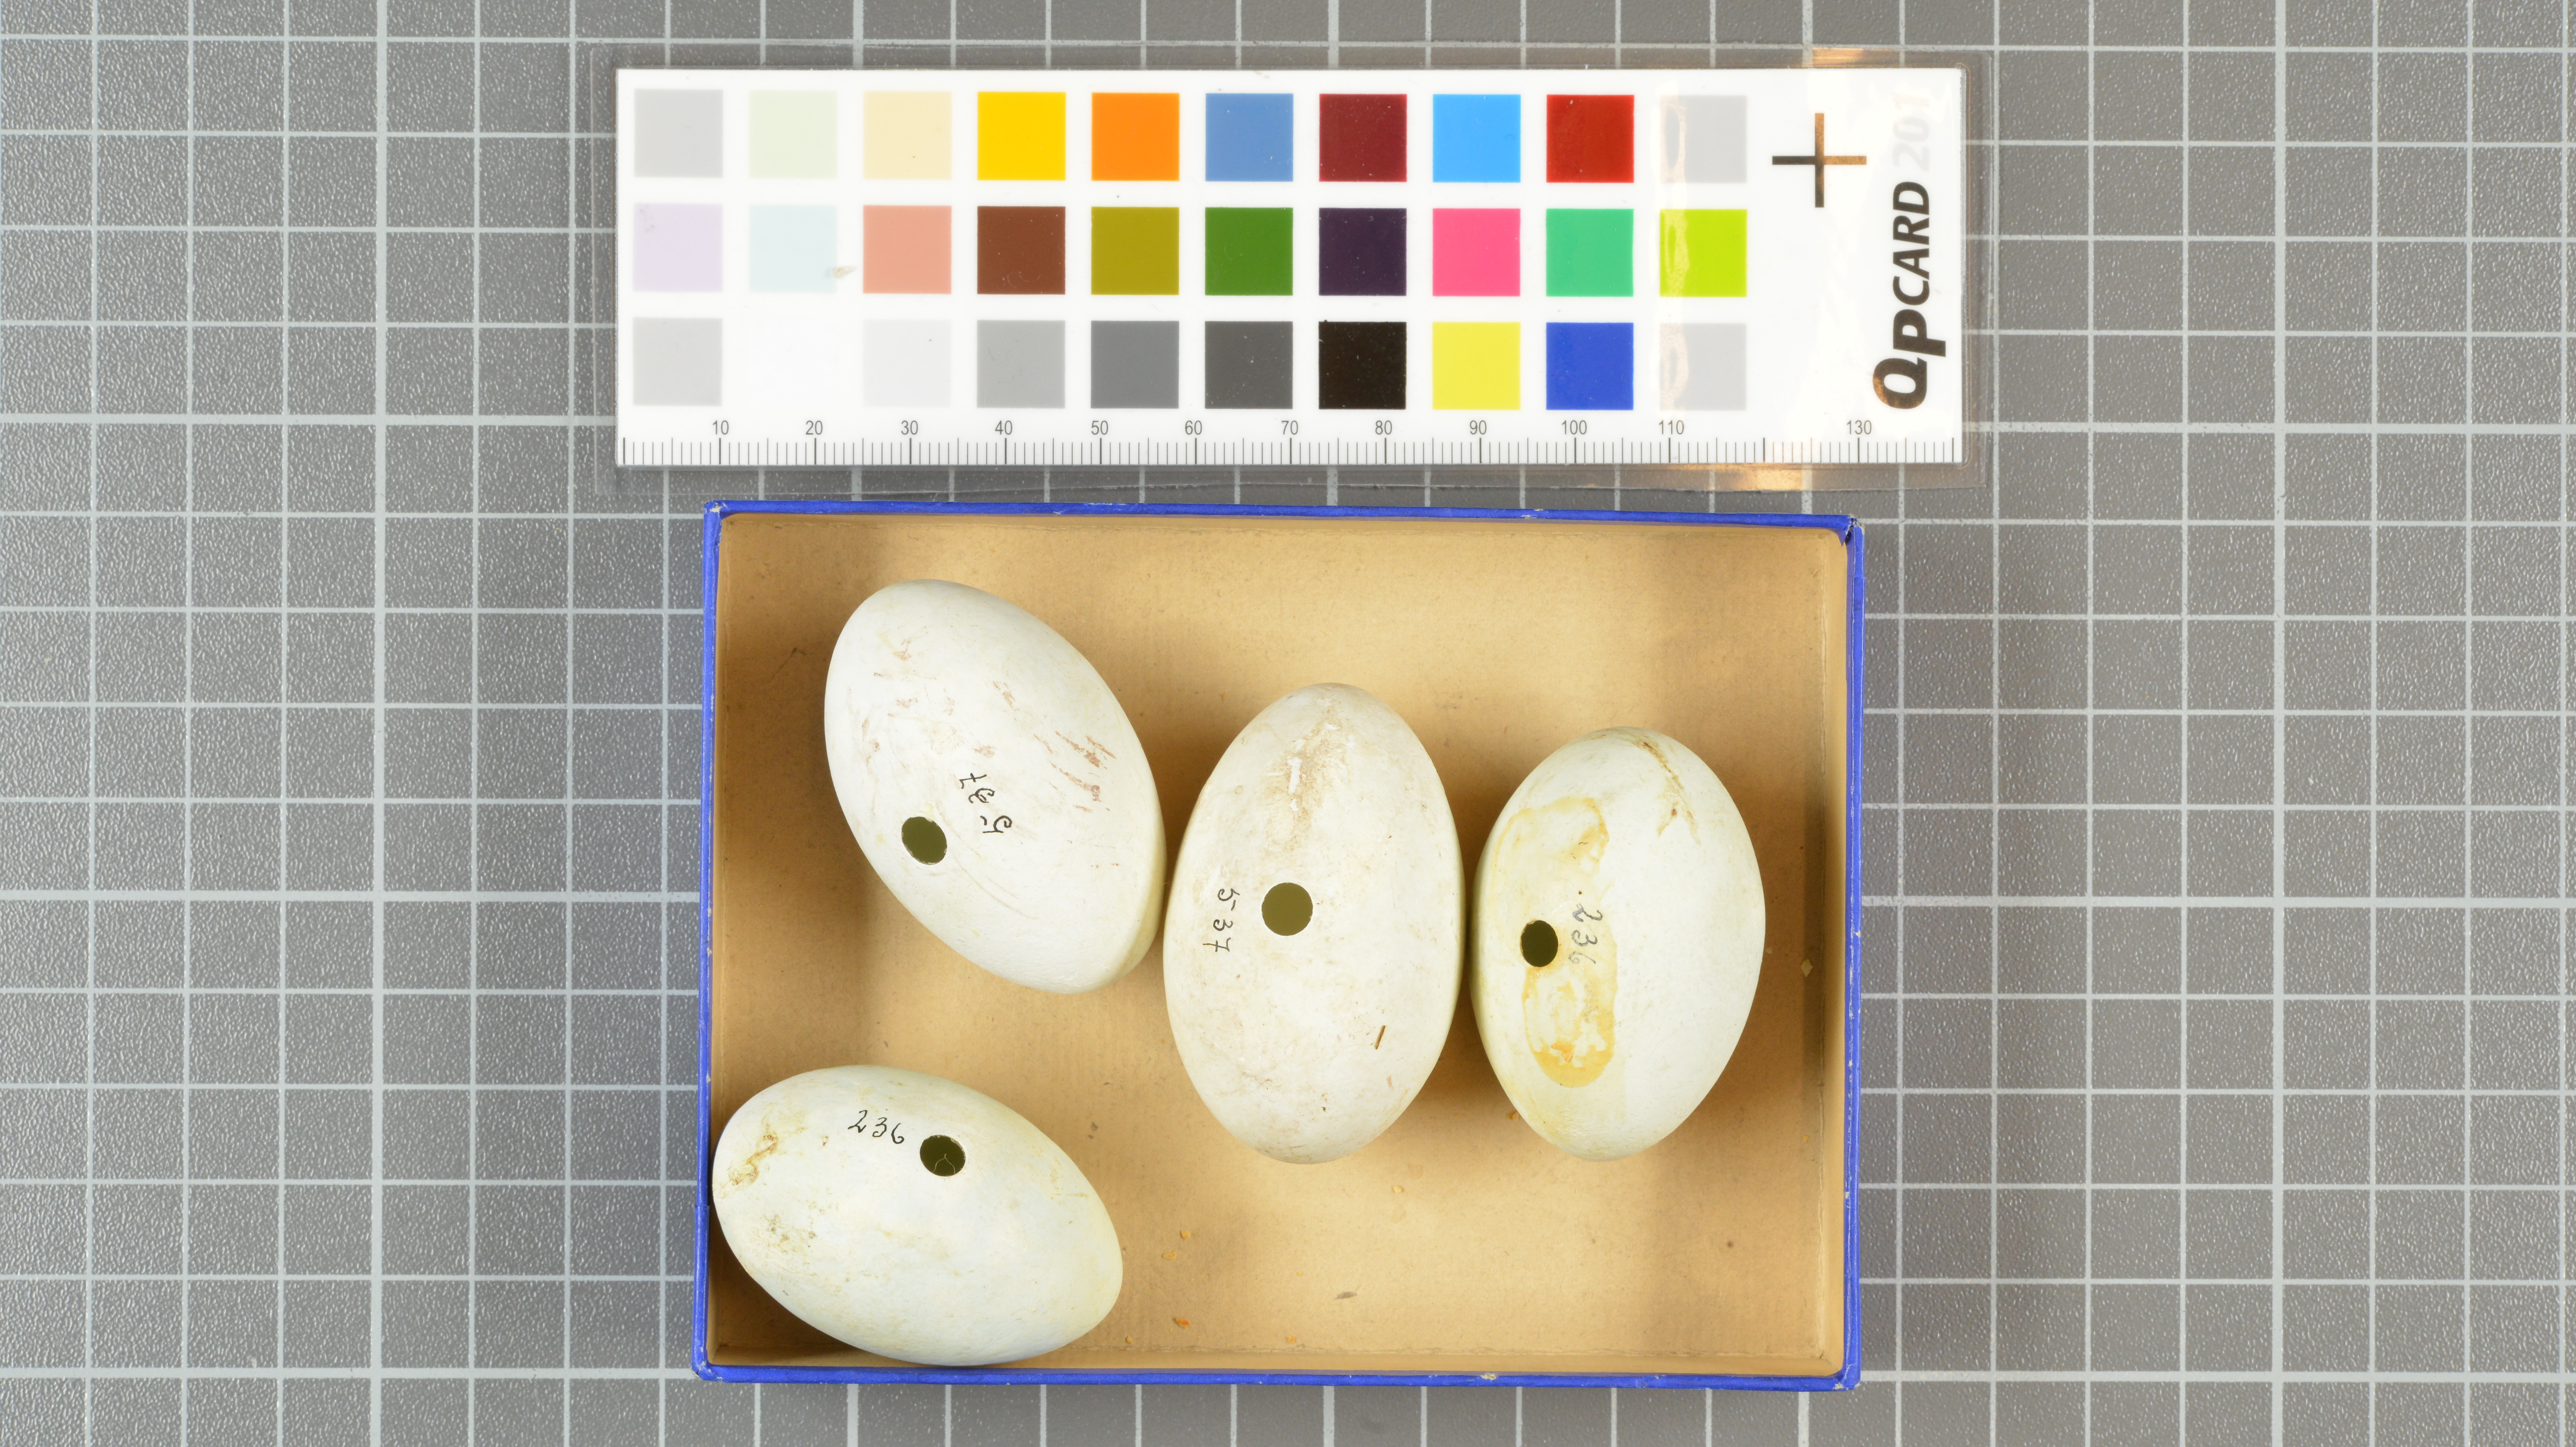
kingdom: Animalia
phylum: Chordata
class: Aves
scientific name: Aves
